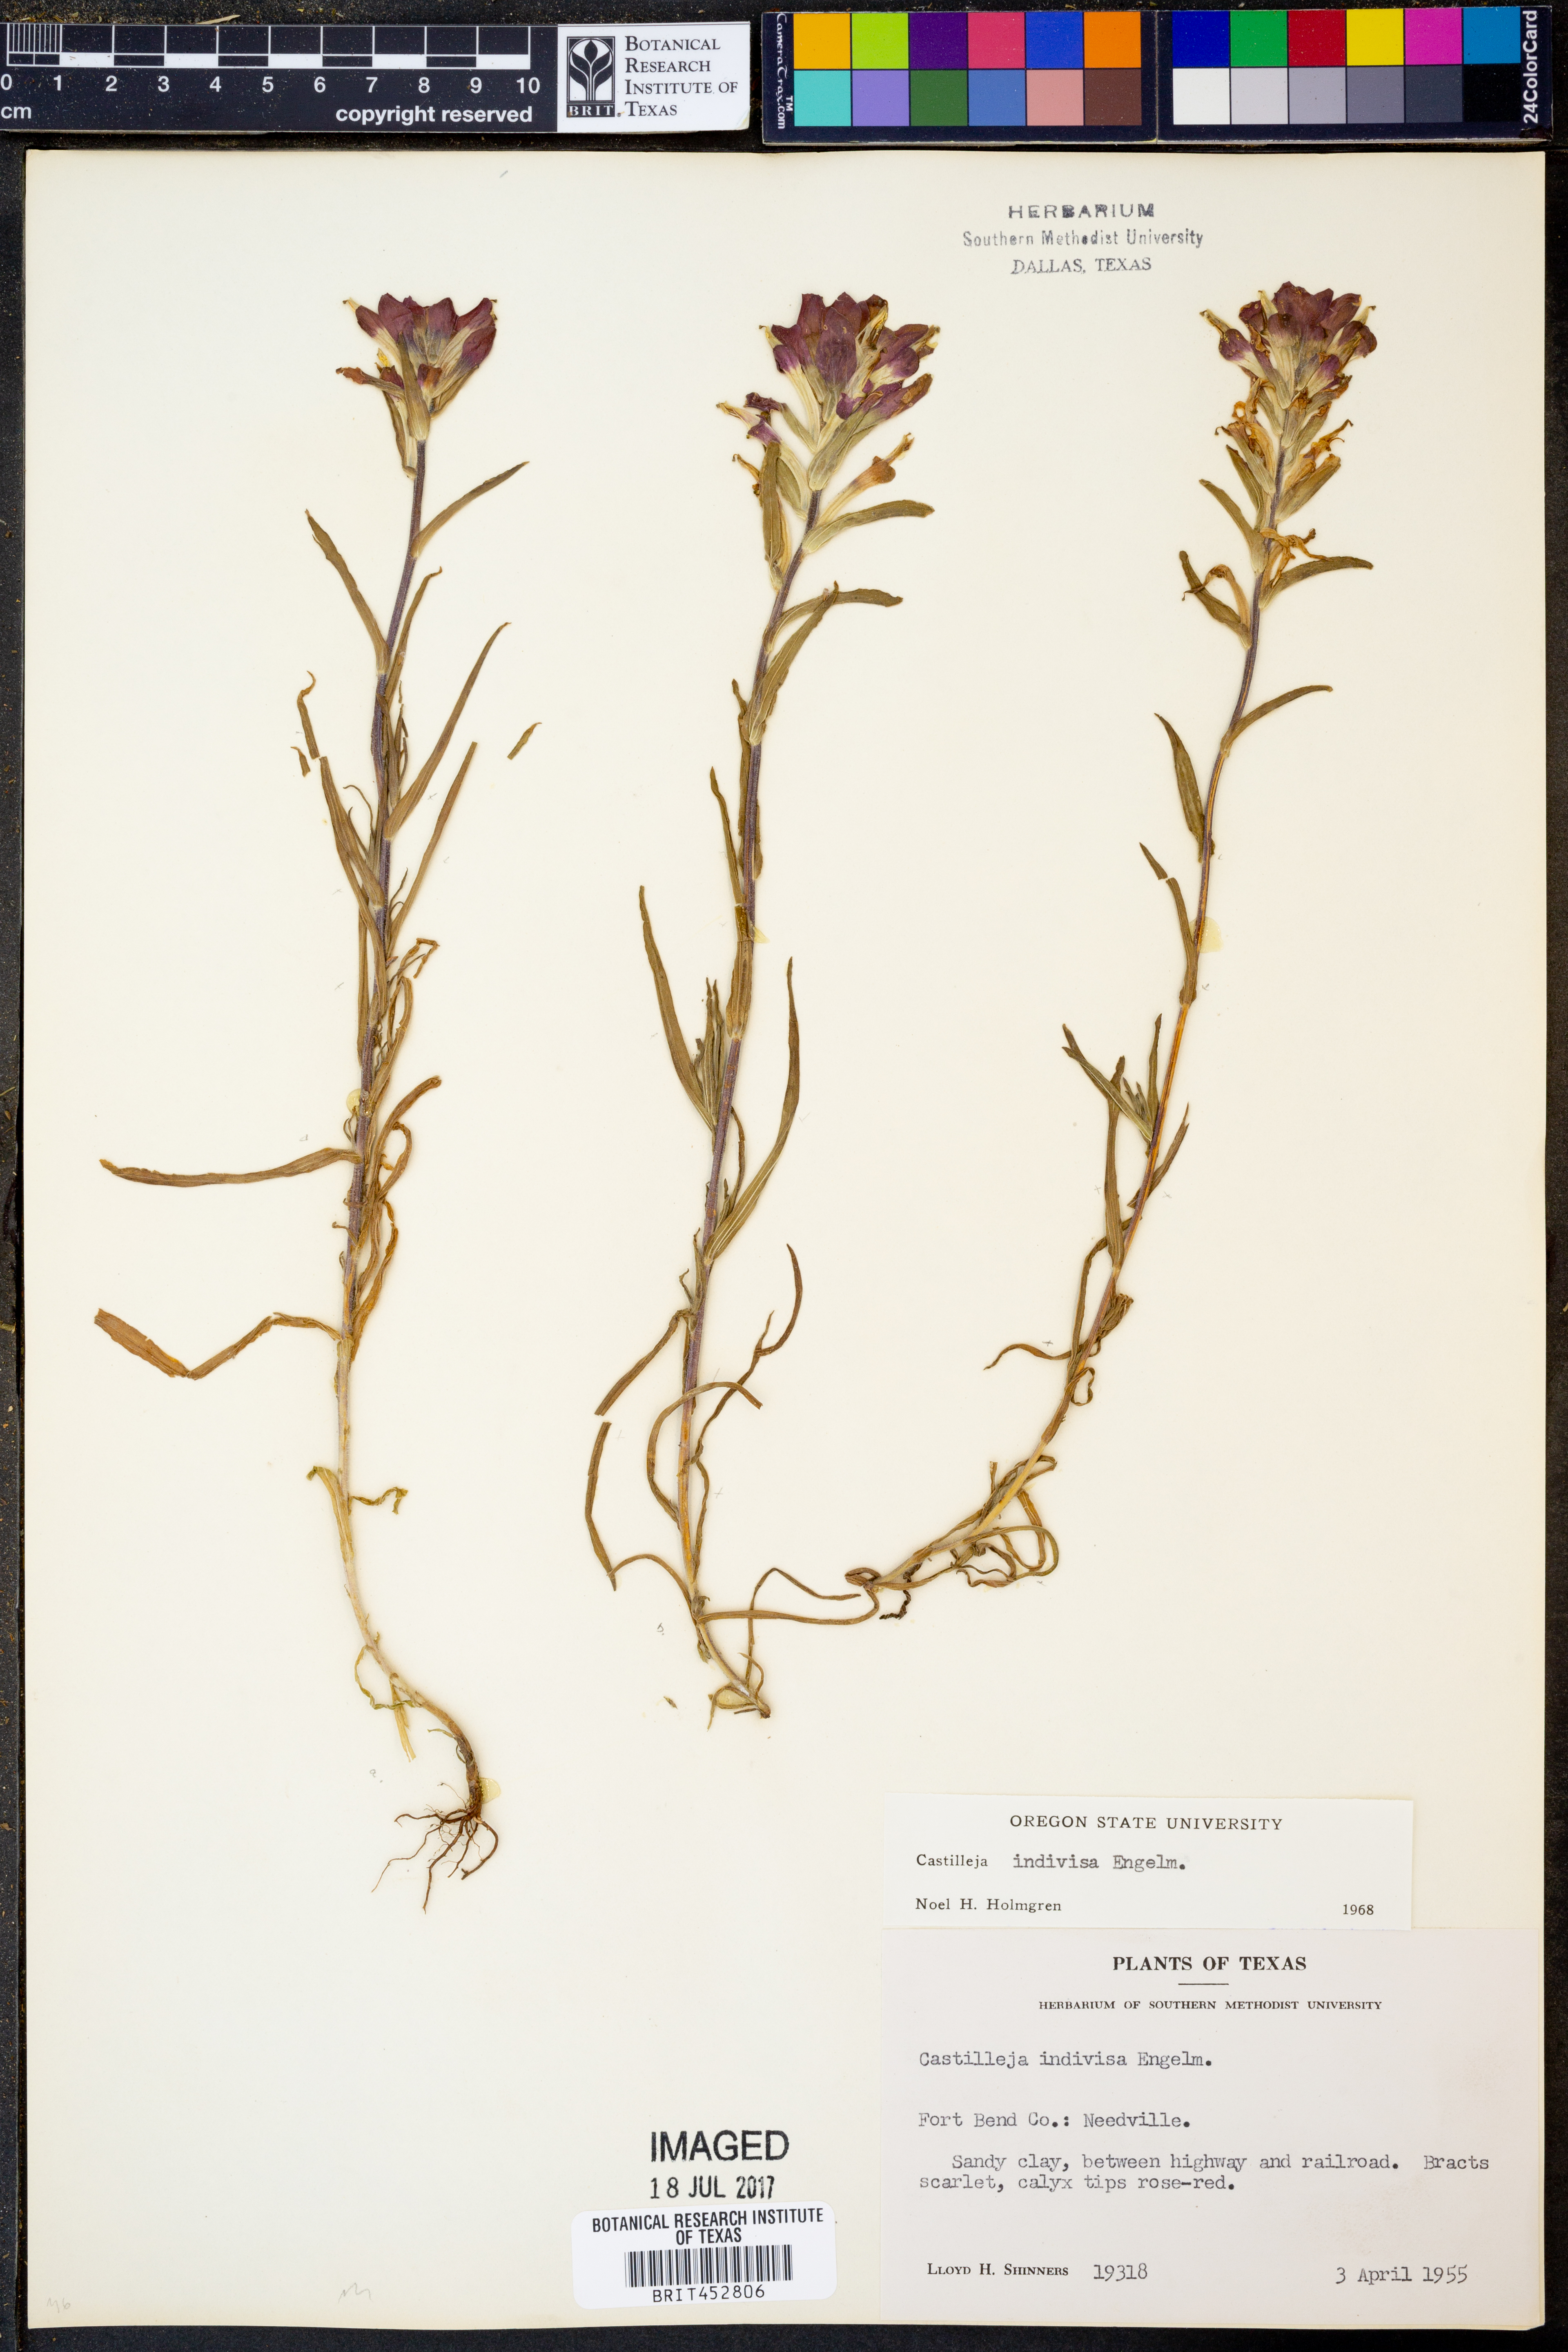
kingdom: Plantae
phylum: Tracheophyta
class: Magnoliopsida
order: Lamiales
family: Orobanchaceae
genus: Castilleja
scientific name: Castilleja indivisa
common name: Texas paintbrush
